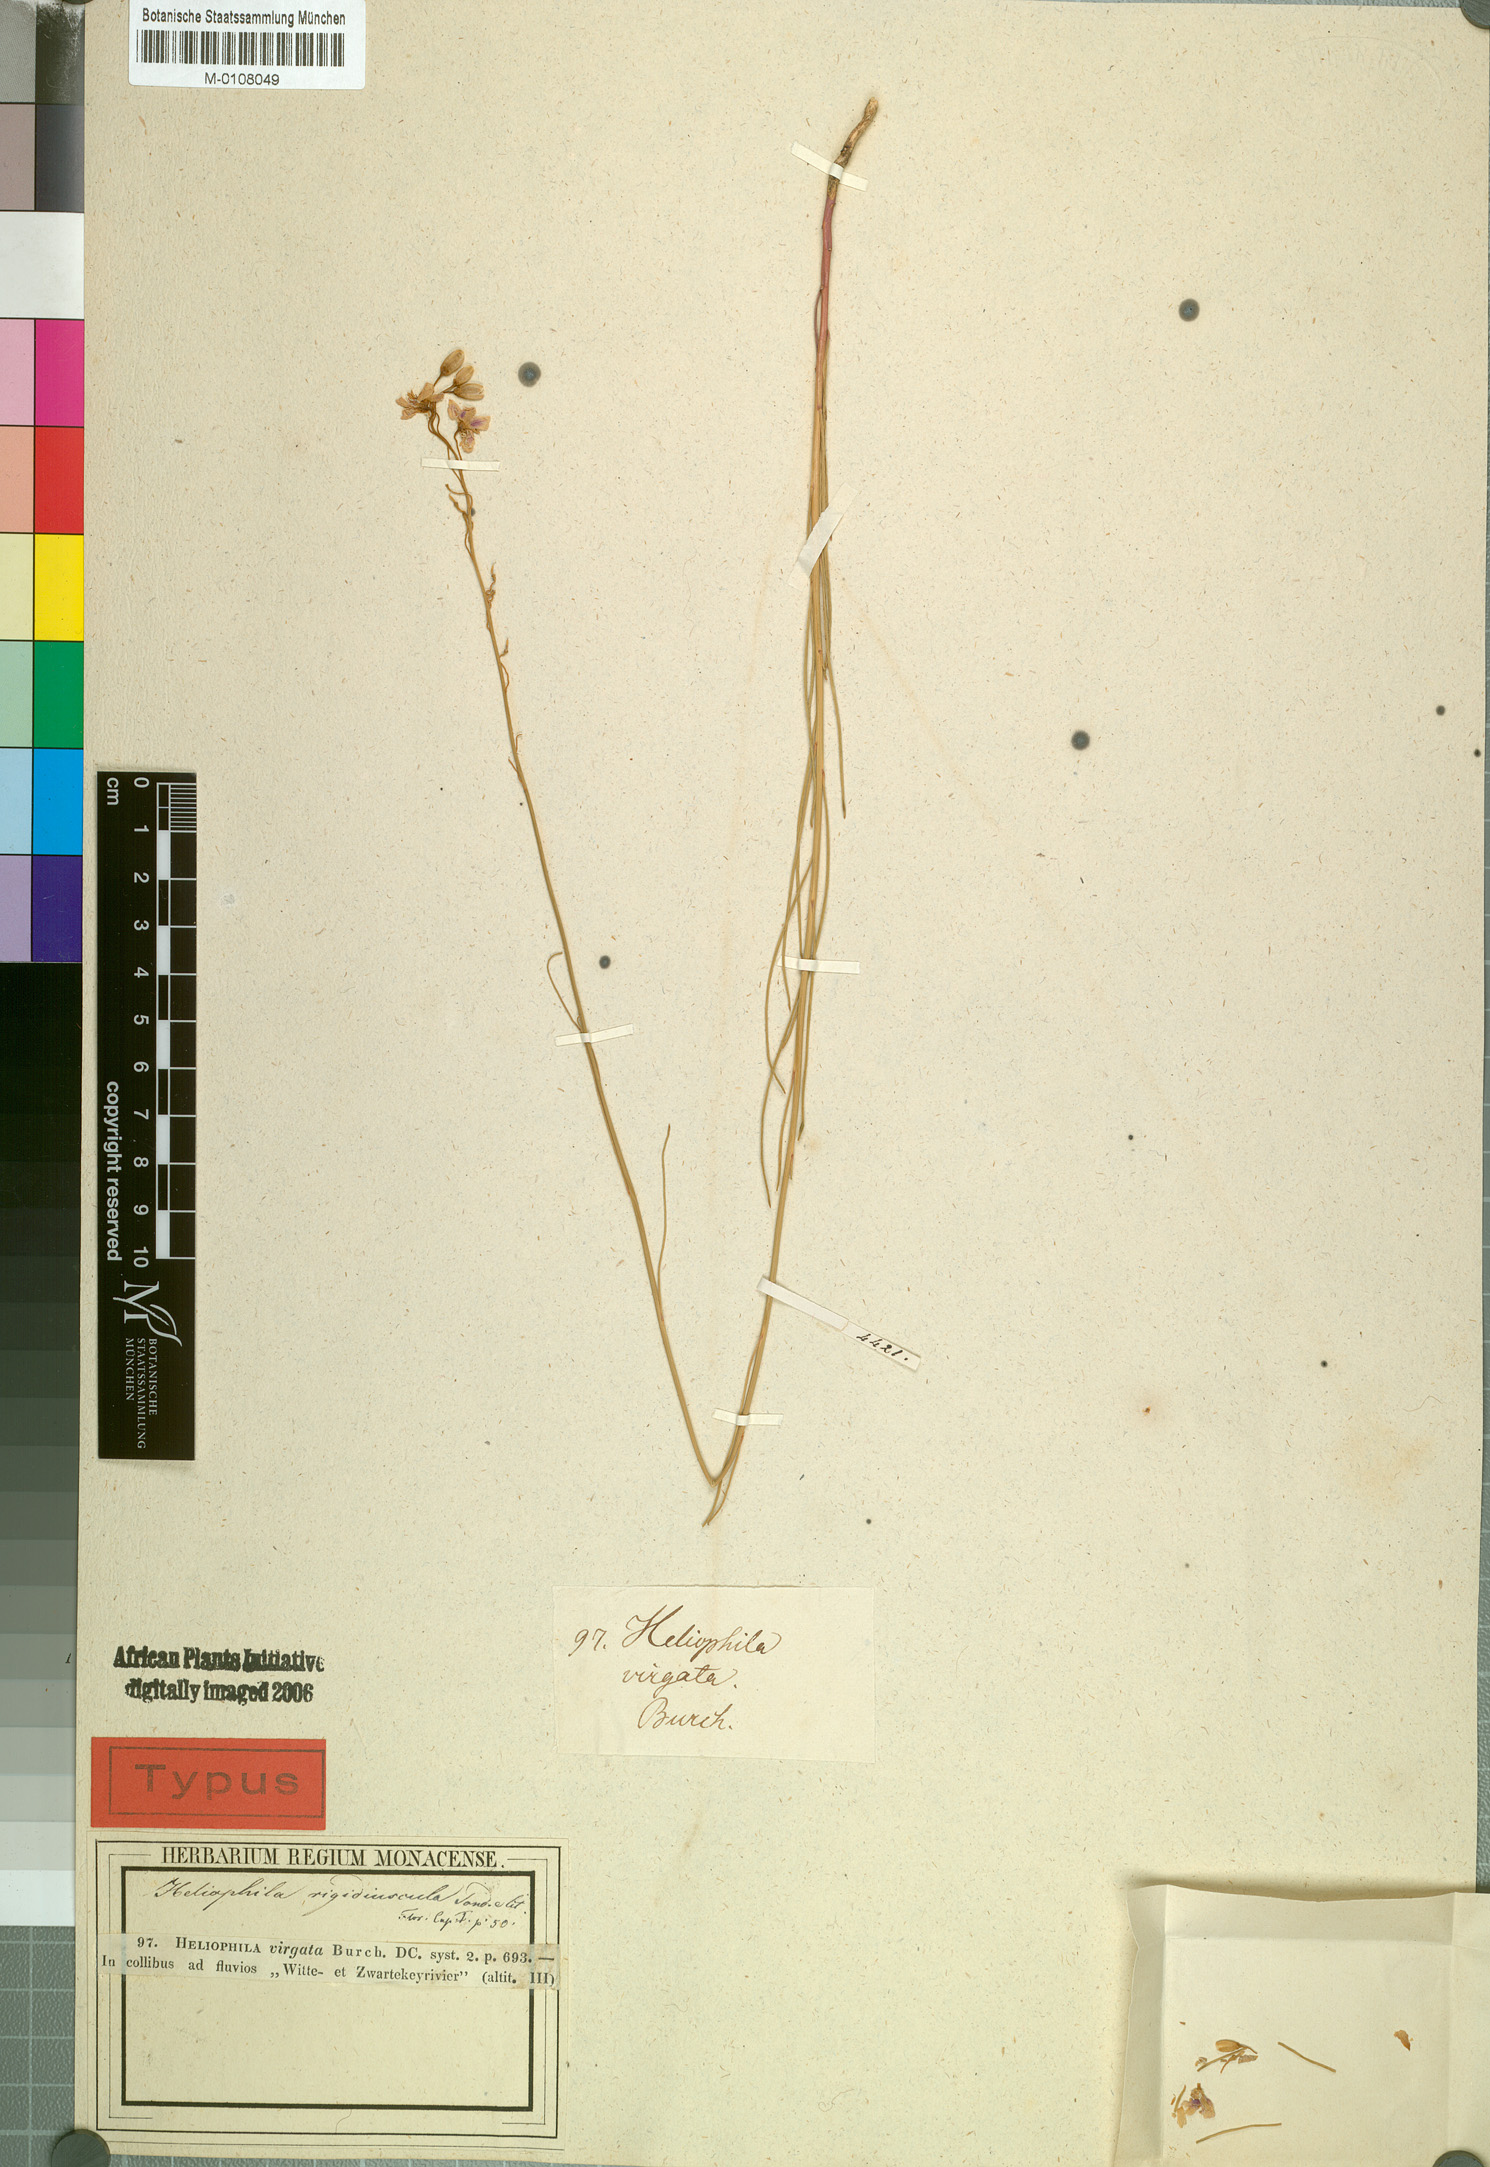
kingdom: Plantae
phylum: Tracheophyta
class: Magnoliopsida
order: Brassicales
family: Brassicaceae
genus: Heliophila
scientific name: Heliophila rigidiuscula
